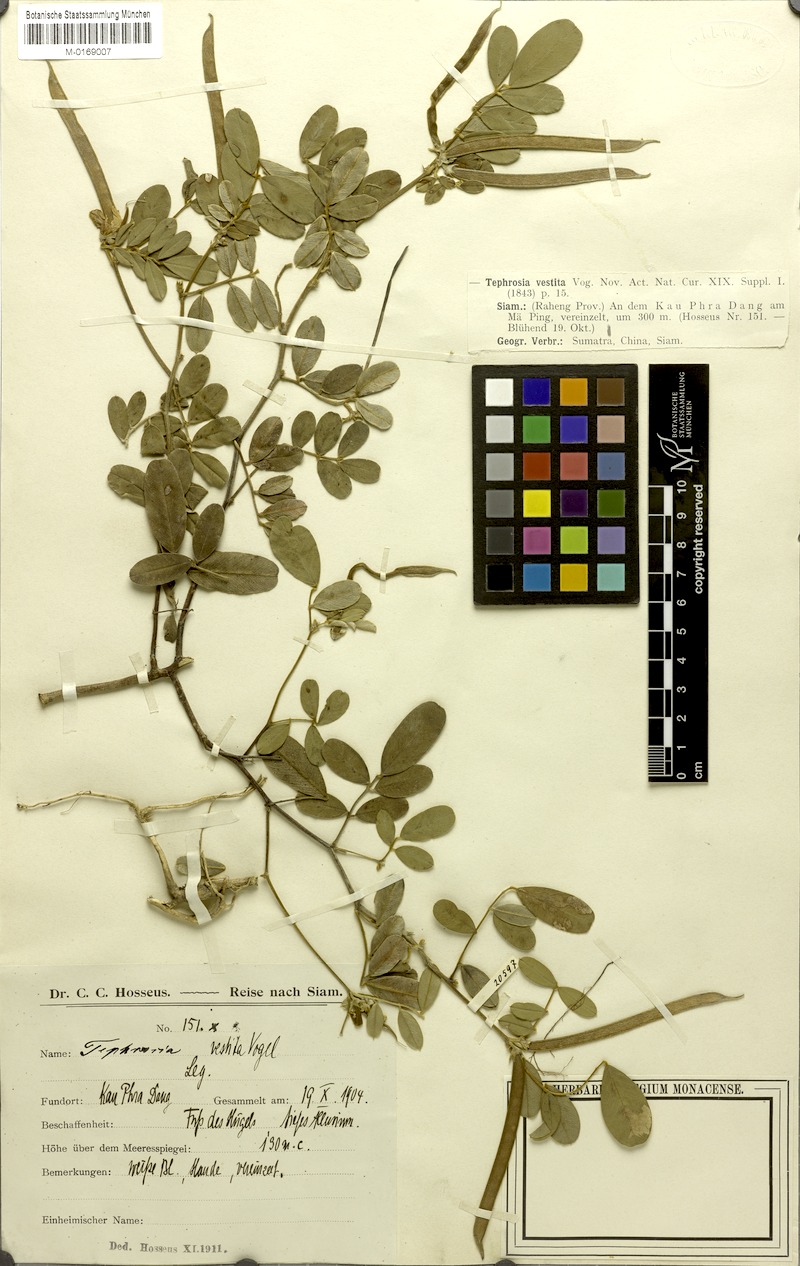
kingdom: Plantae
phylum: Tracheophyta
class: Magnoliopsida
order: Fabales
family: Fabaceae
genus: Tephrosia
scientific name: Tephrosia vestita
